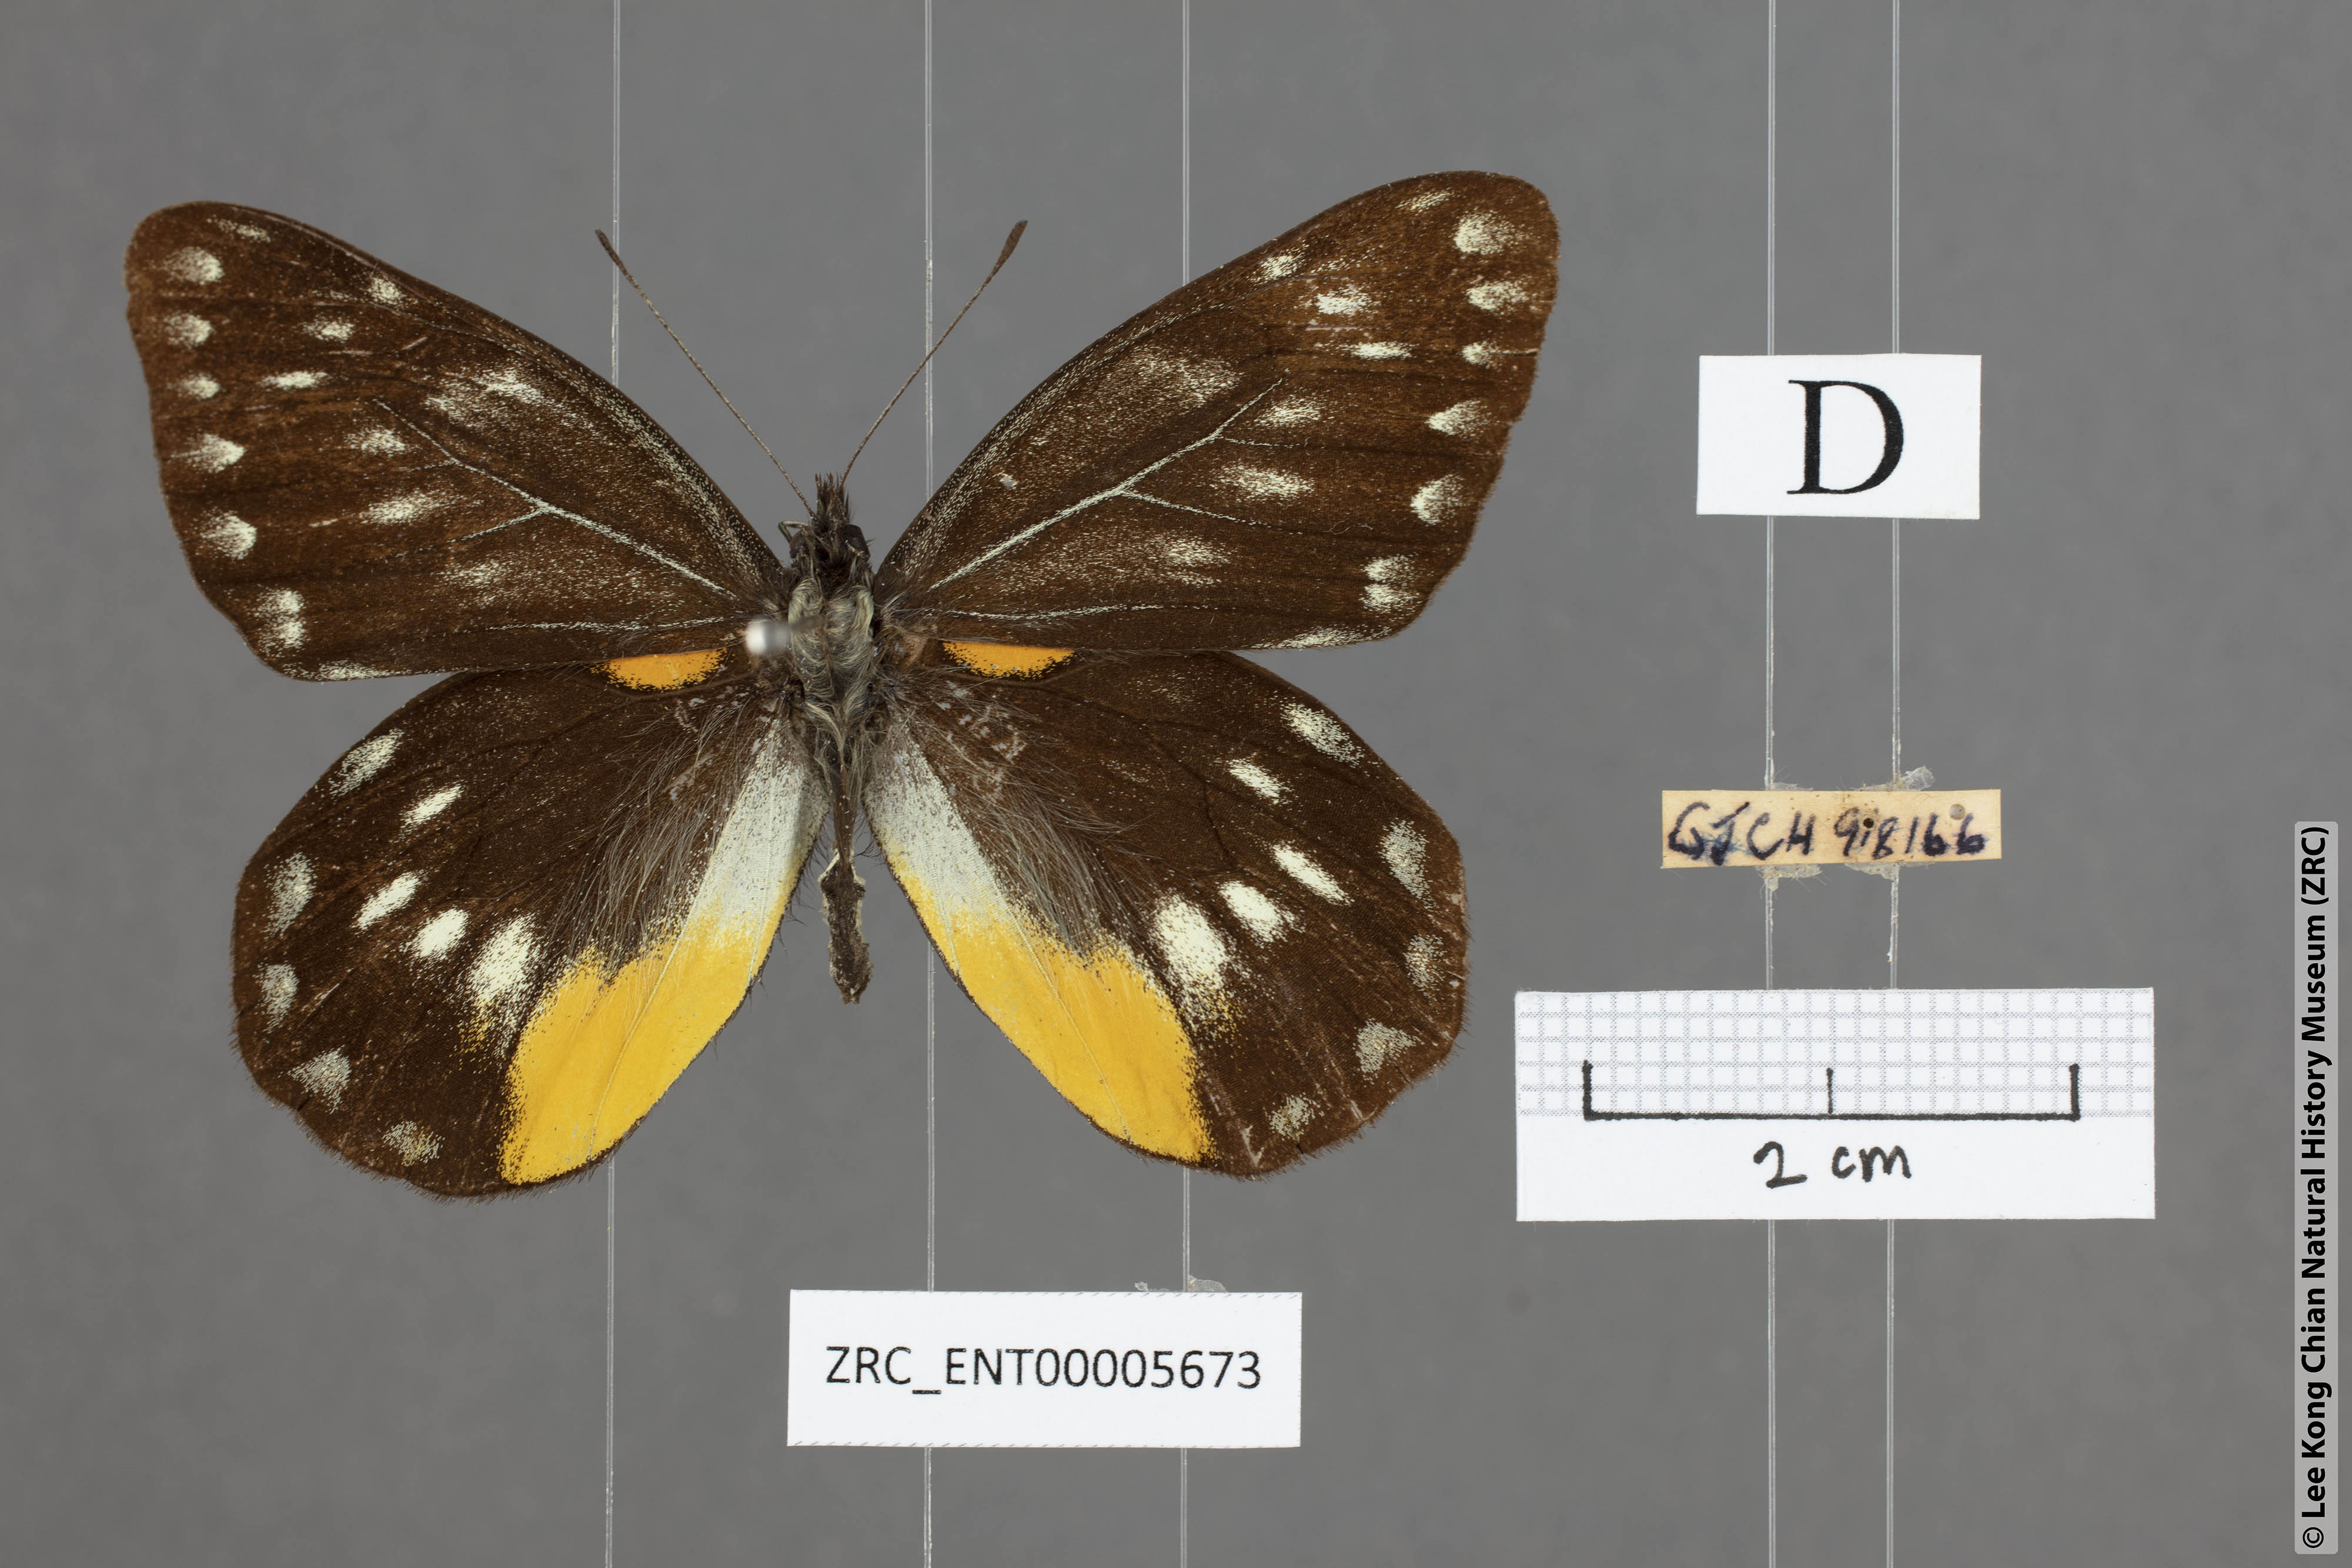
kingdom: Animalia
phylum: Arthropoda
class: Insecta
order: Lepidoptera
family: Pieridae
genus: Delias
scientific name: Delias belladonna
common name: Hill jezebel
